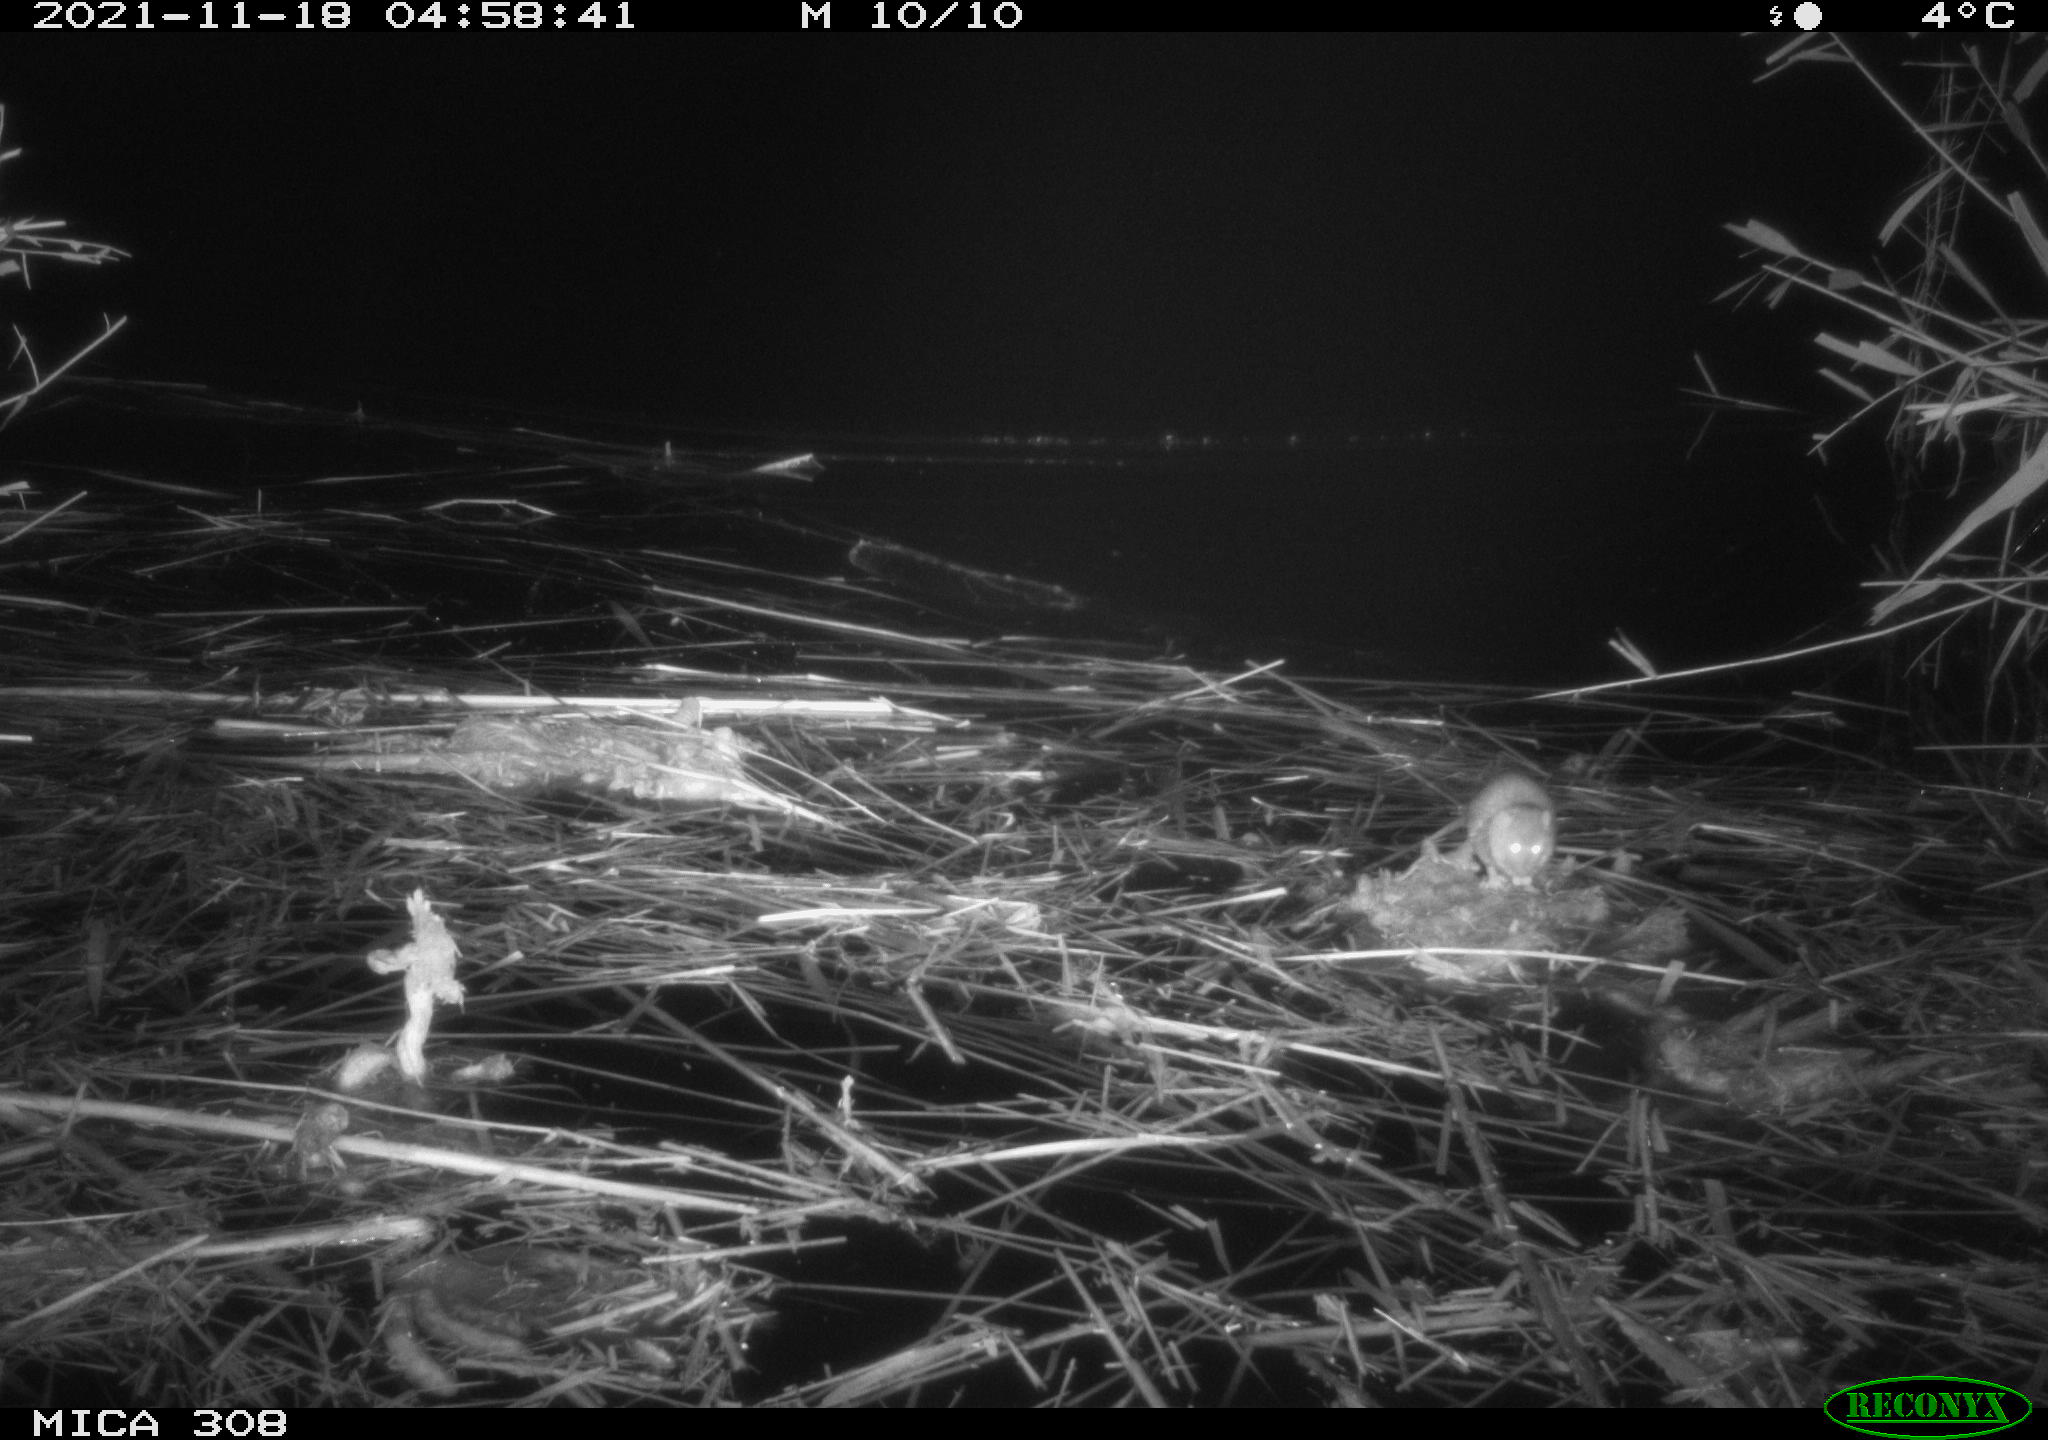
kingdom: Animalia
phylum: Chordata
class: Mammalia
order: Rodentia
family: Muridae
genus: Rattus
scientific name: Rattus norvegicus
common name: Brown rat
